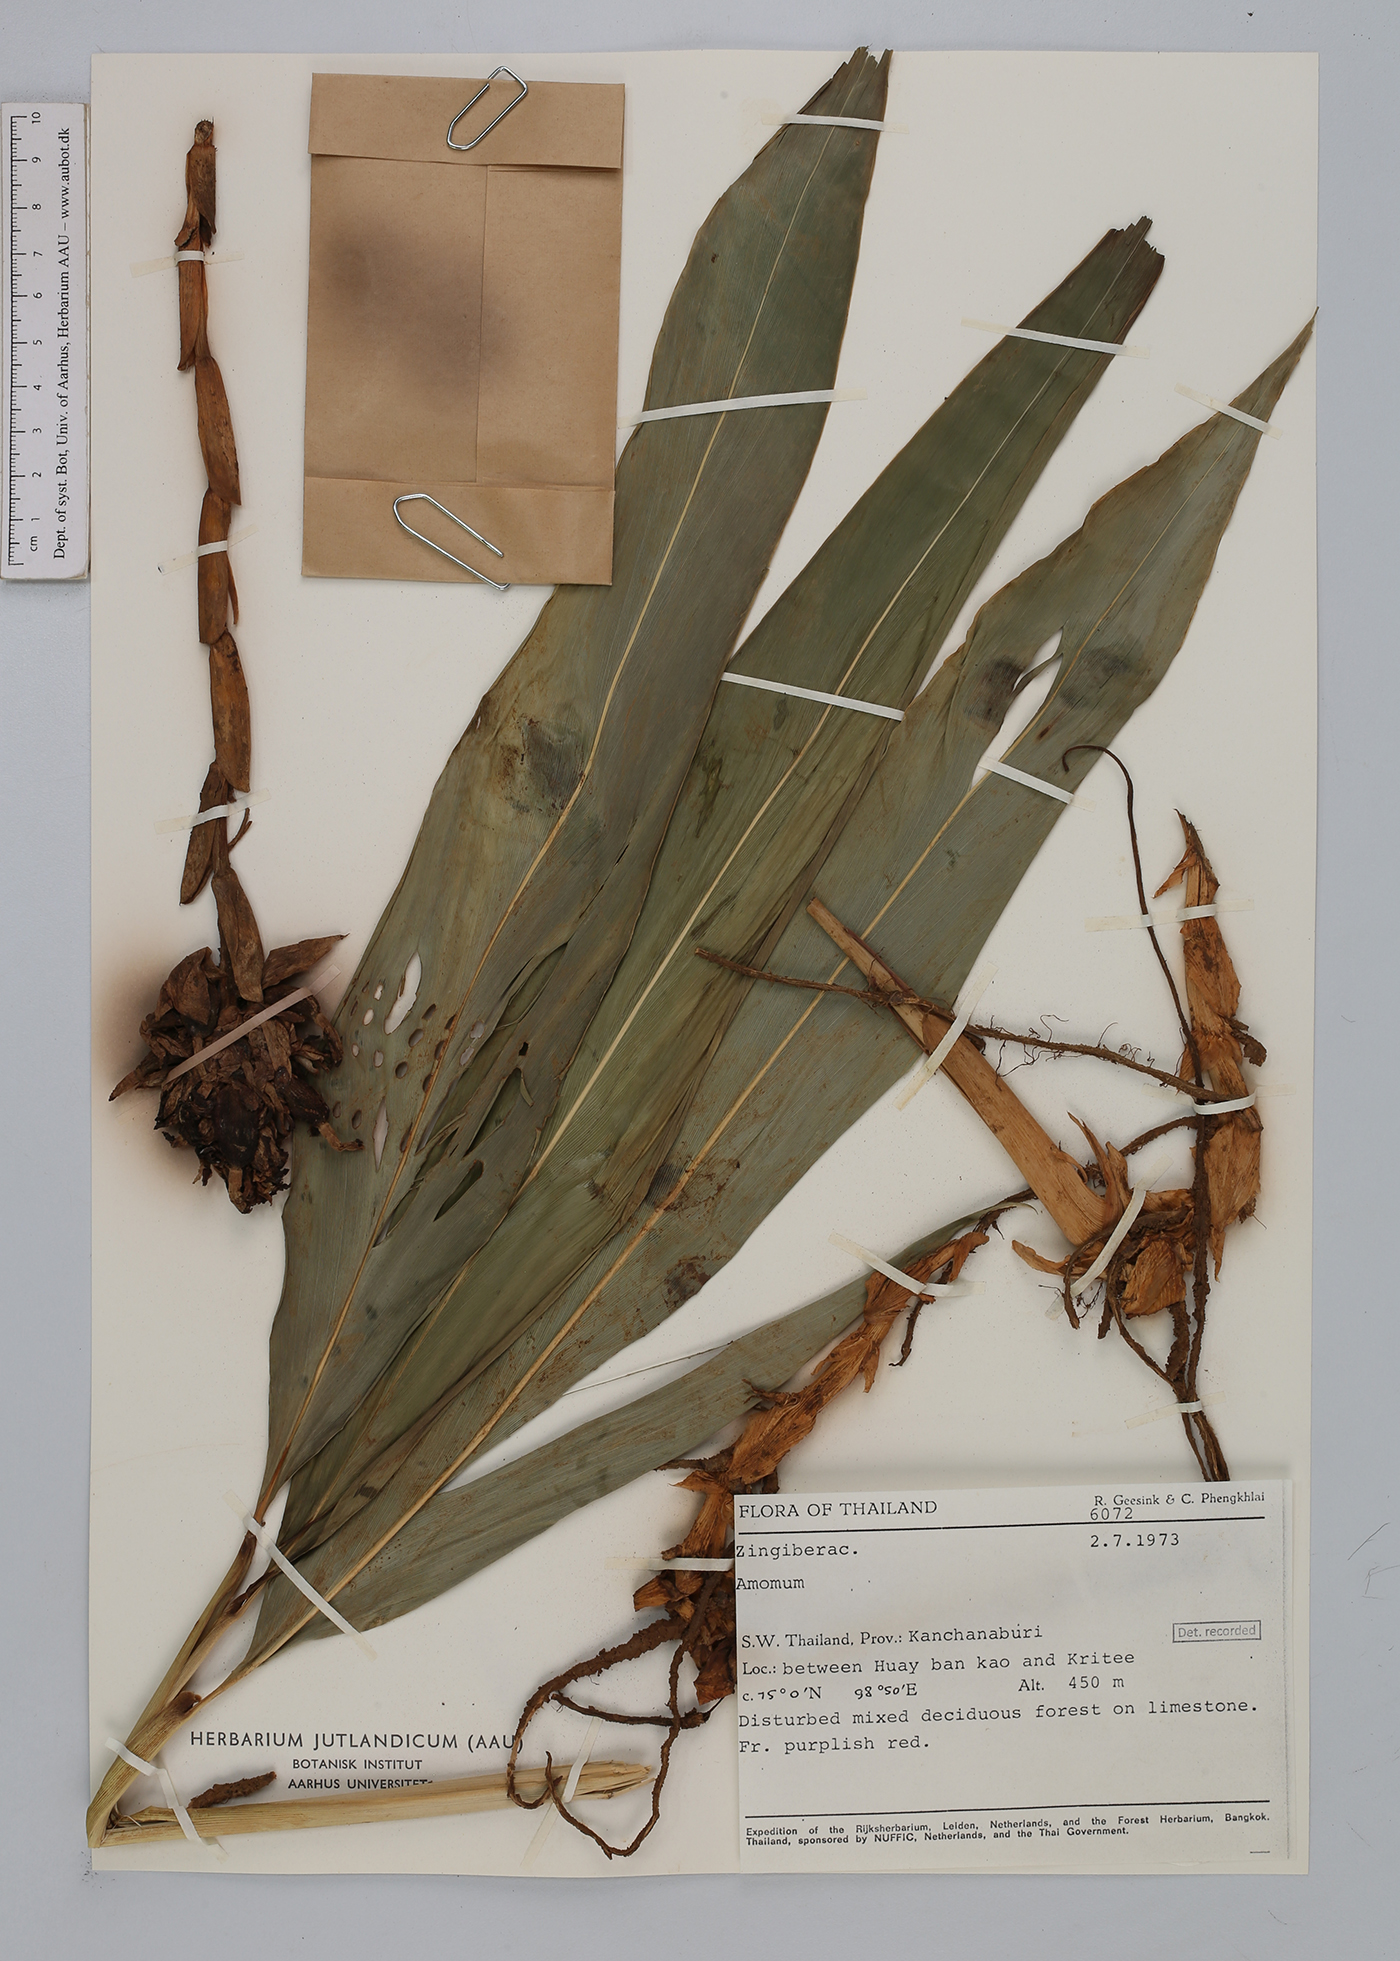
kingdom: Plantae
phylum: Tracheophyta
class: Liliopsida
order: Zingiberales
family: Zingiberaceae
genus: Amomum
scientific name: Amomum
